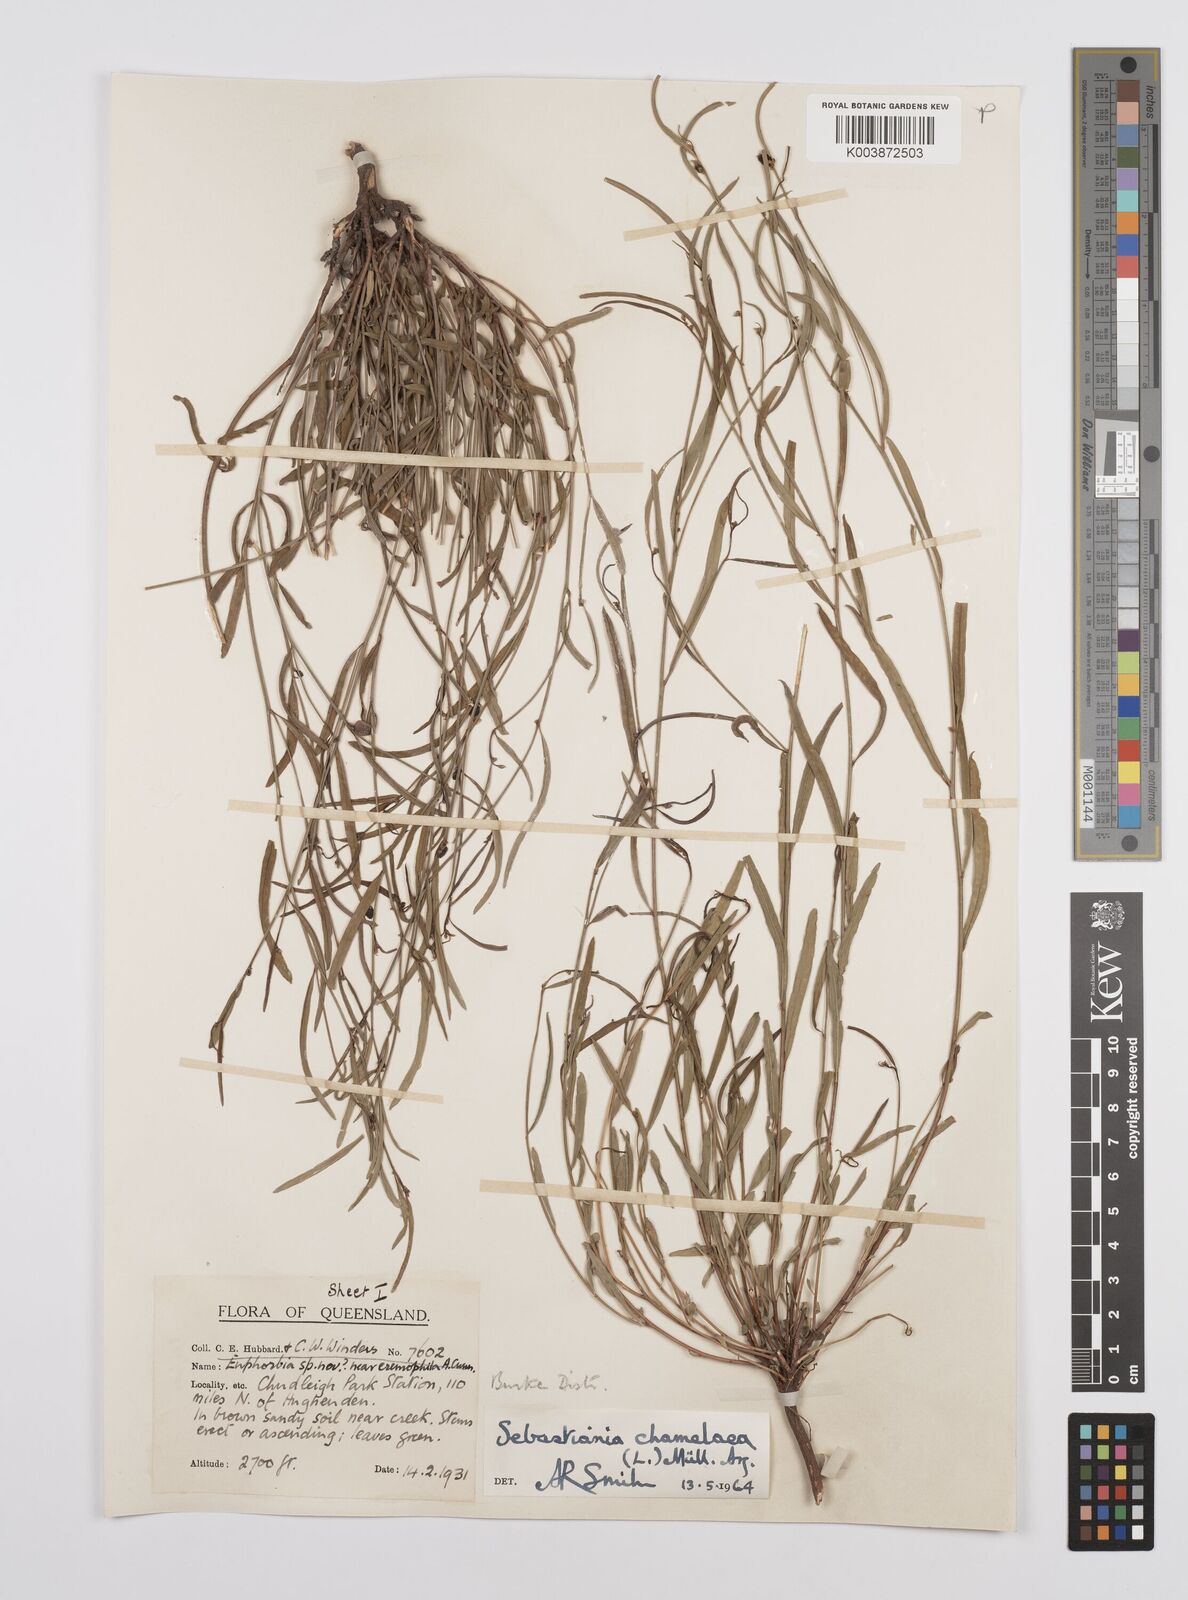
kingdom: Plantae
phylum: Tracheophyta
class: Magnoliopsida
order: Malpighiales
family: Euphorbiaceae
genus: Microstachys
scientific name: Microstachys chamaelea
